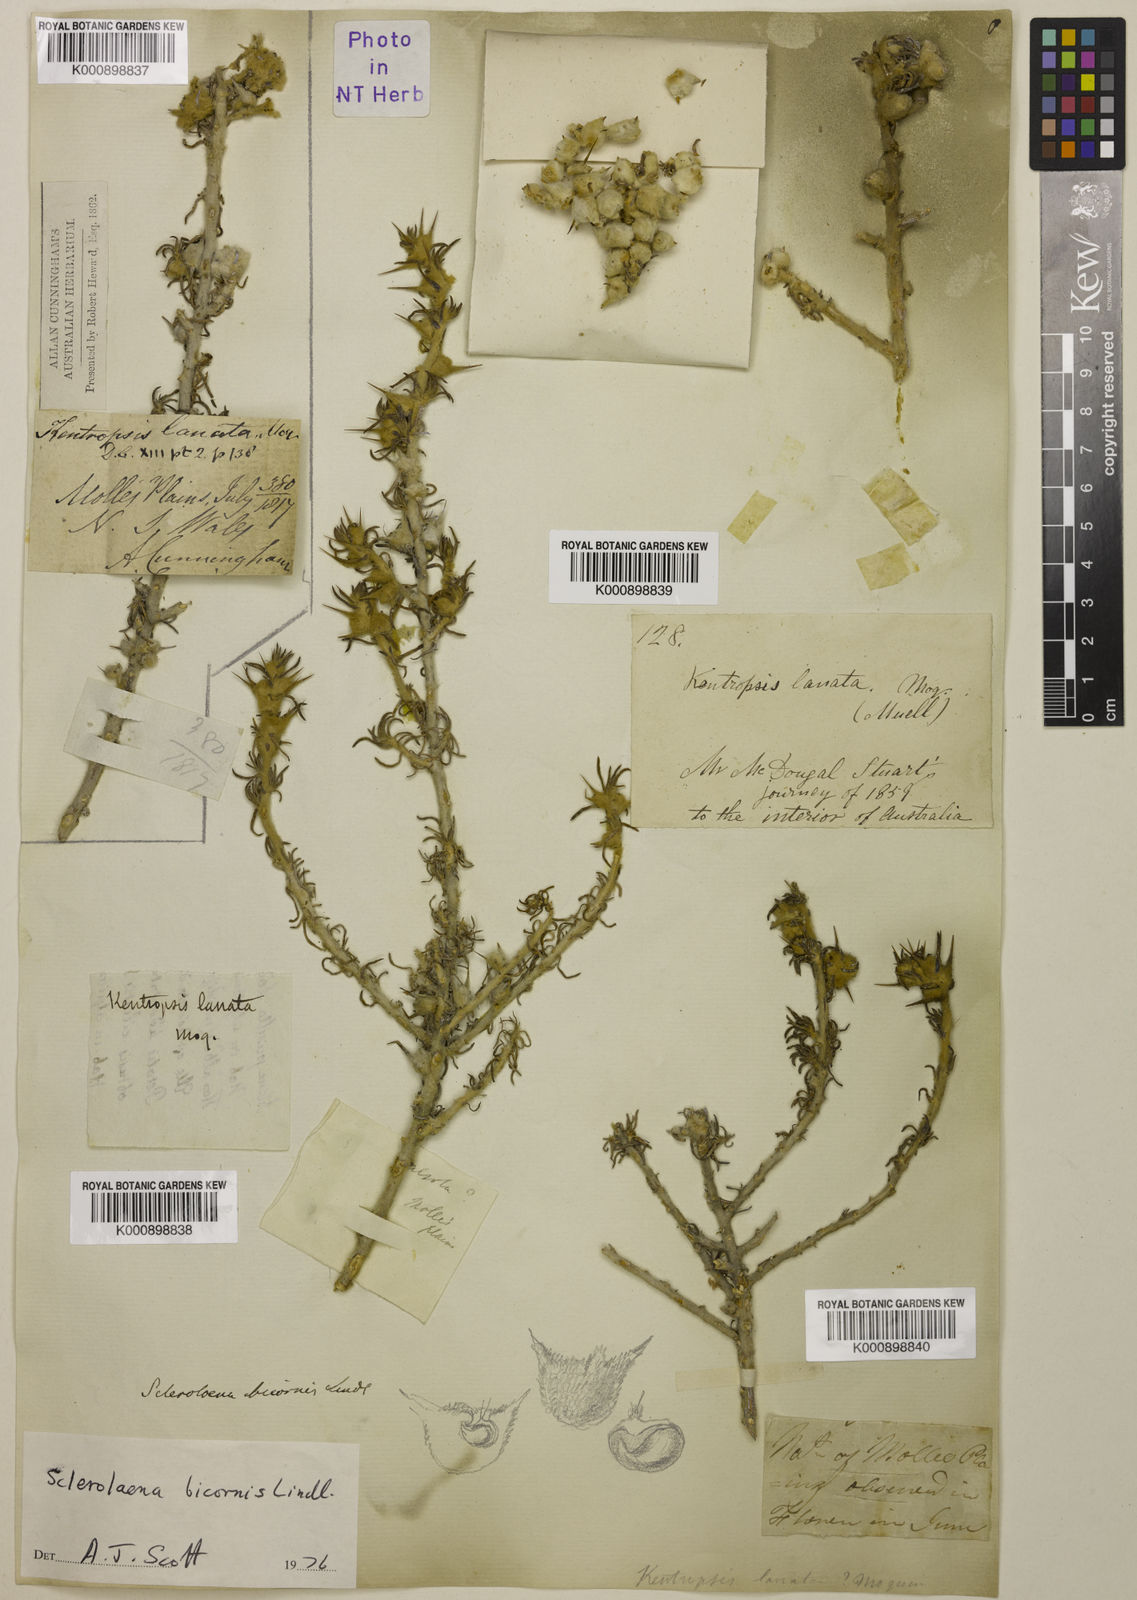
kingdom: Plantae
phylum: Tracheophyta
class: Magnoliopsida
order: Caryophyllales
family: Amaranthaceae
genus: Sclerolaena
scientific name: Sclerolaena bicornis
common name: Goatheadbur
